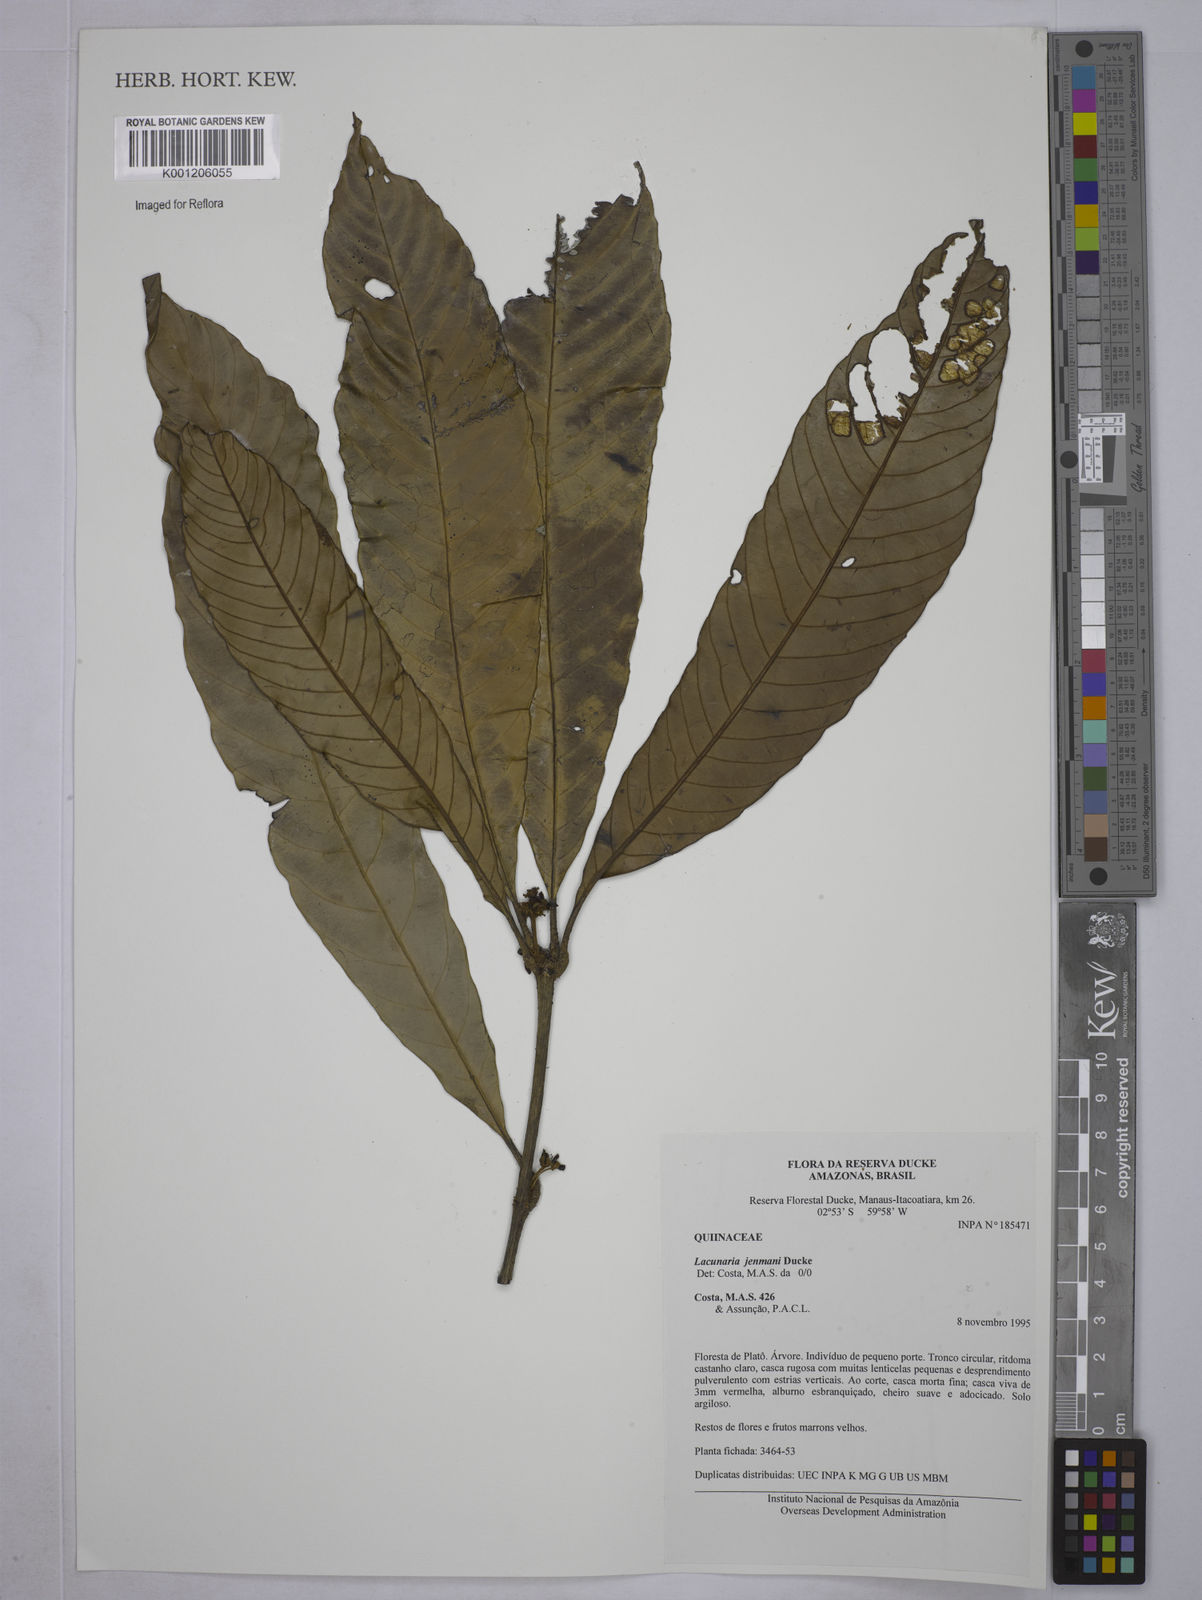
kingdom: Plantae
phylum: Tracheophyta
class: Magnoliopsida
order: Malpighiales
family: Quiinaceae
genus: Lacunaria
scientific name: Lacunaria jenmanii
